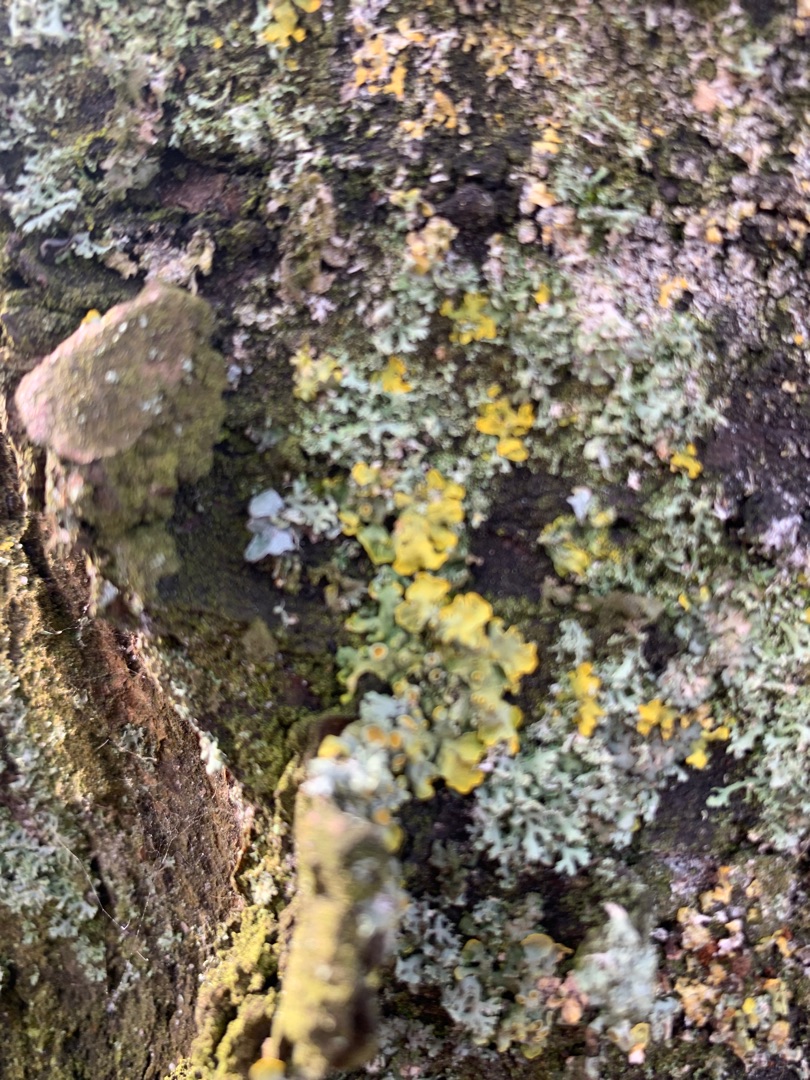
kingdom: Fungi
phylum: Ascomycota
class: Lecanoromycetes
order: Teloschistales
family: Teloschistaceae
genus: Xanthoria
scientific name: Xanthoria parietina
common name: Almindelig væggelav
